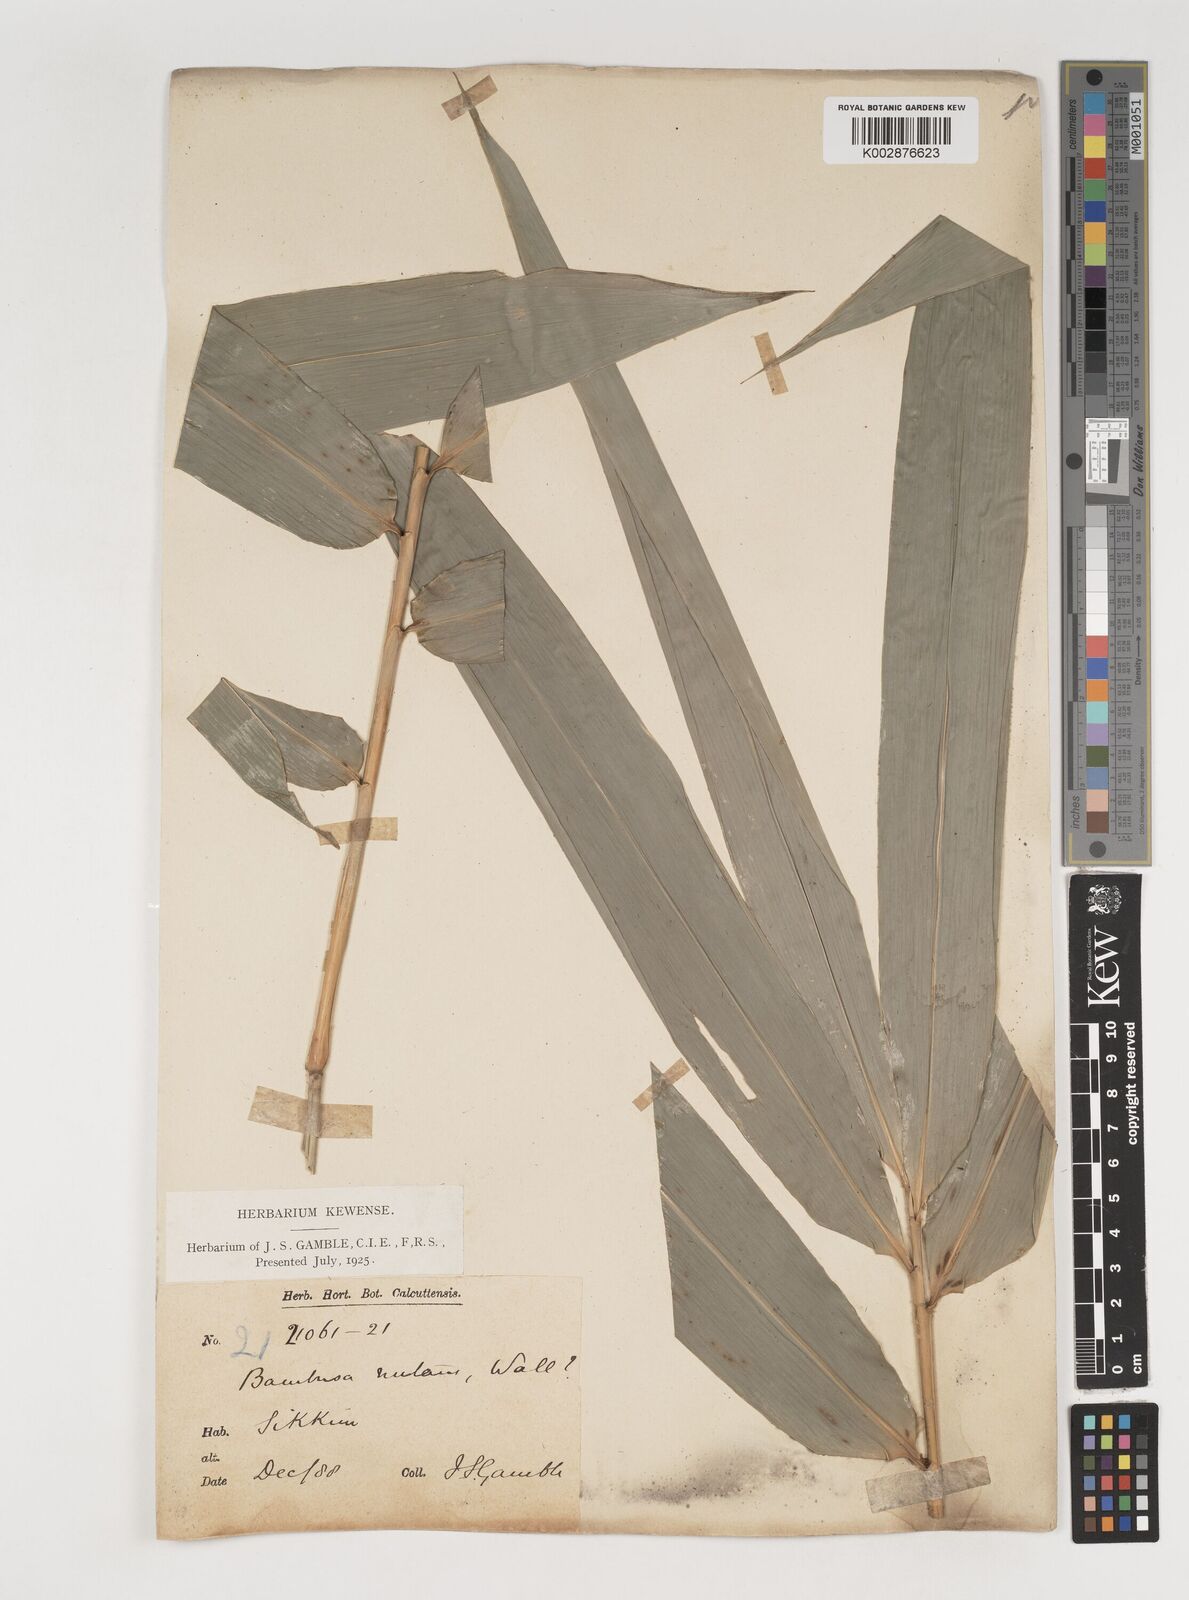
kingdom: Plantae
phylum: Tracheophyta
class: Liliopsida
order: Poales
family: Poaceae
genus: Bambusa
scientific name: Bambusa nutans
